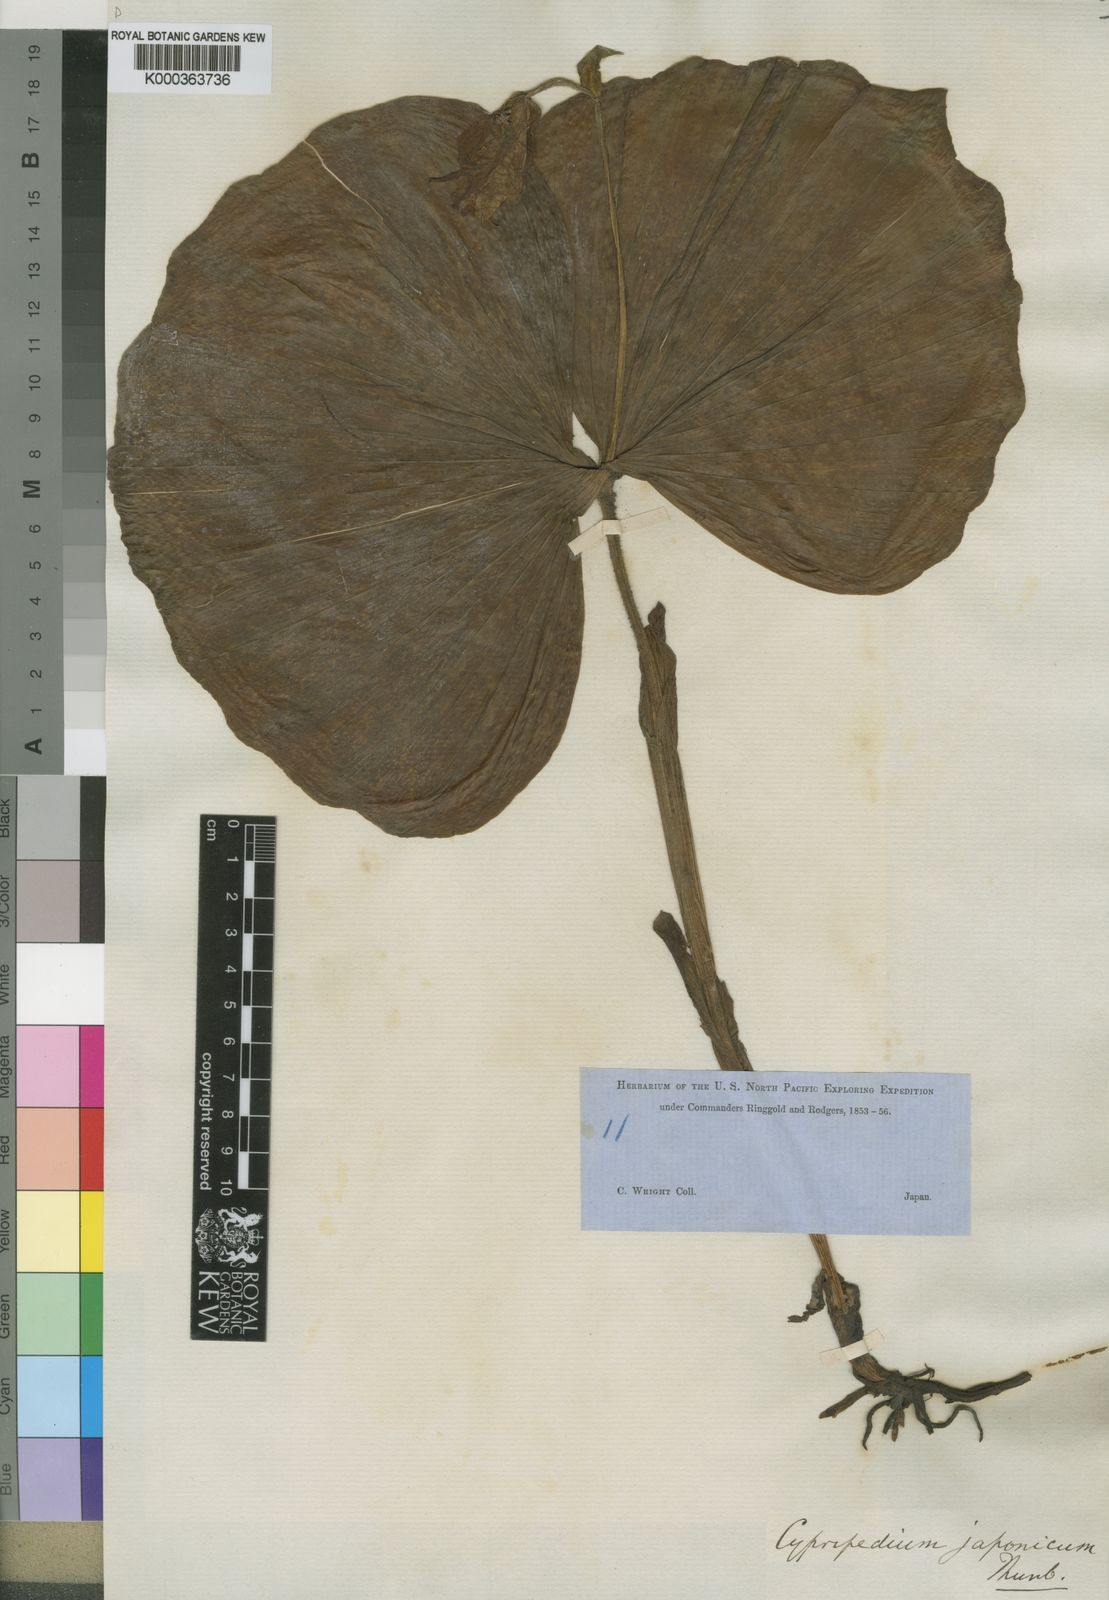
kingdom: Plantae
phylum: Tracheophyta
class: Liliopsida
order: Asparagales
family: Orchidaceae
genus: Cypripedium
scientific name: Cypripedium japonicum
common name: Japanese ladyslipper
